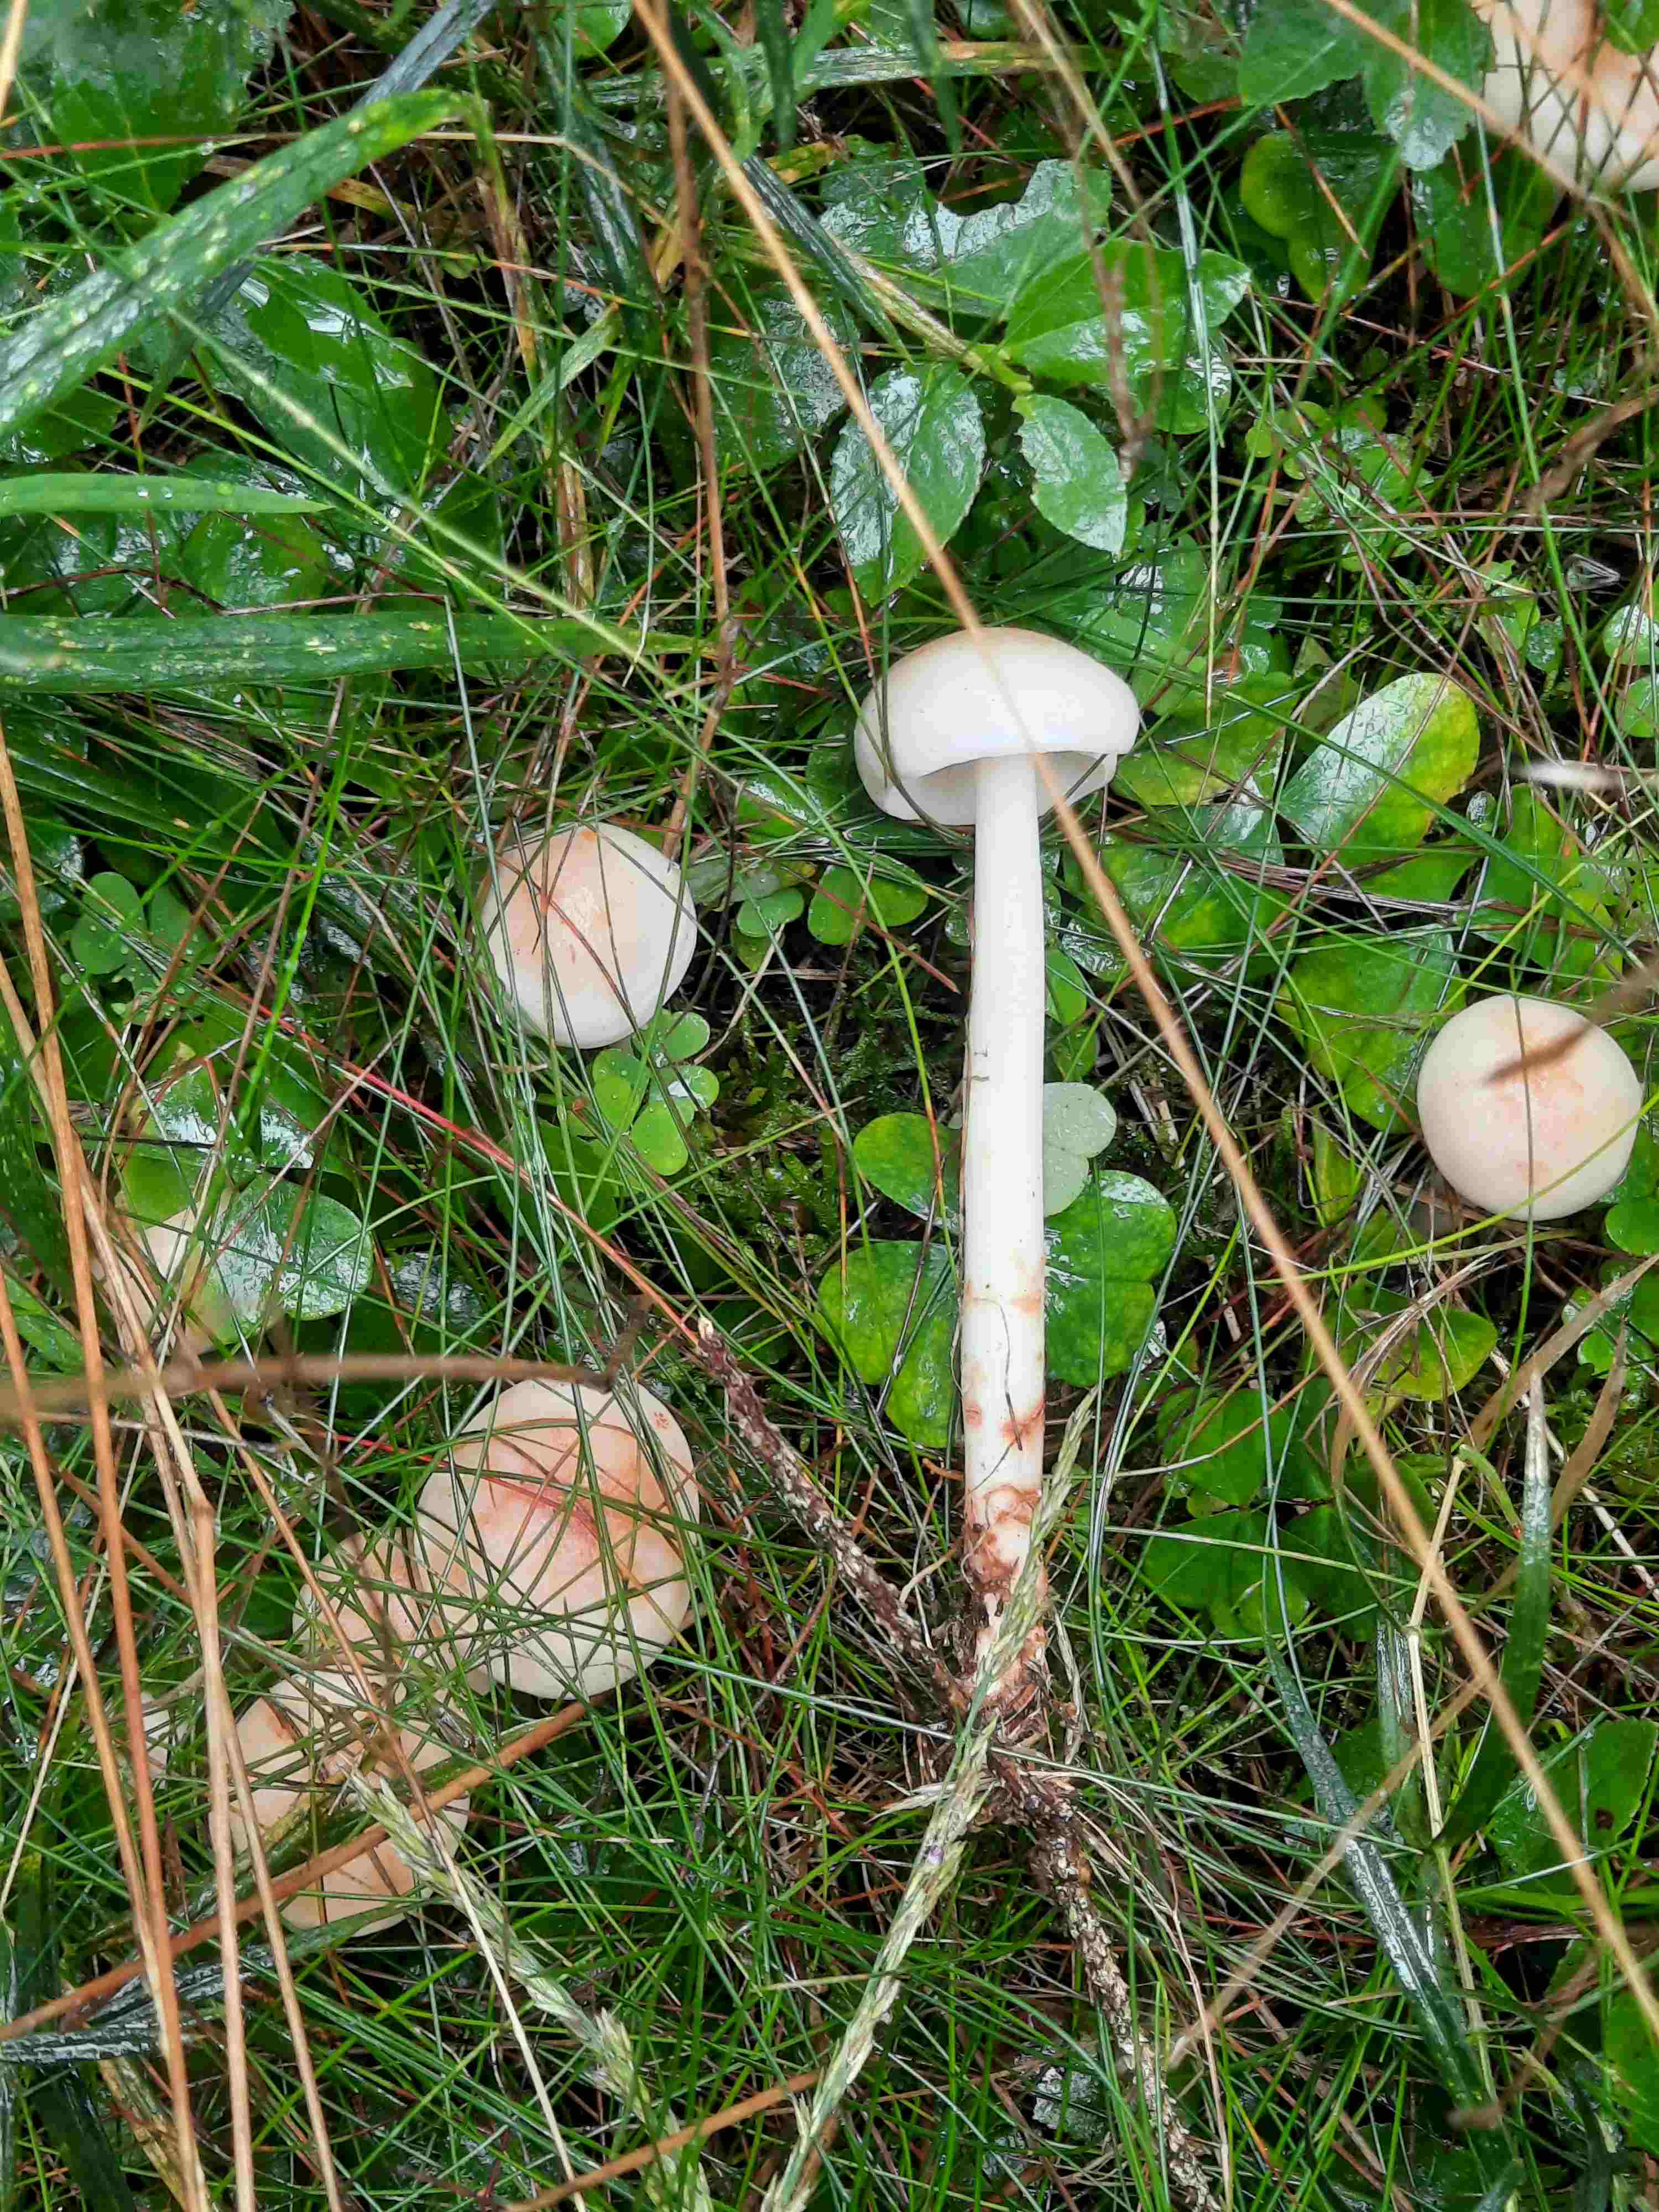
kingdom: Fungi
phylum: Basidiomycota
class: Agaricomycetes
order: Agaricales
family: Omphalotaceae
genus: Rhodocollybia
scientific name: Rhodocollybia maculata
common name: plettet fladhat
